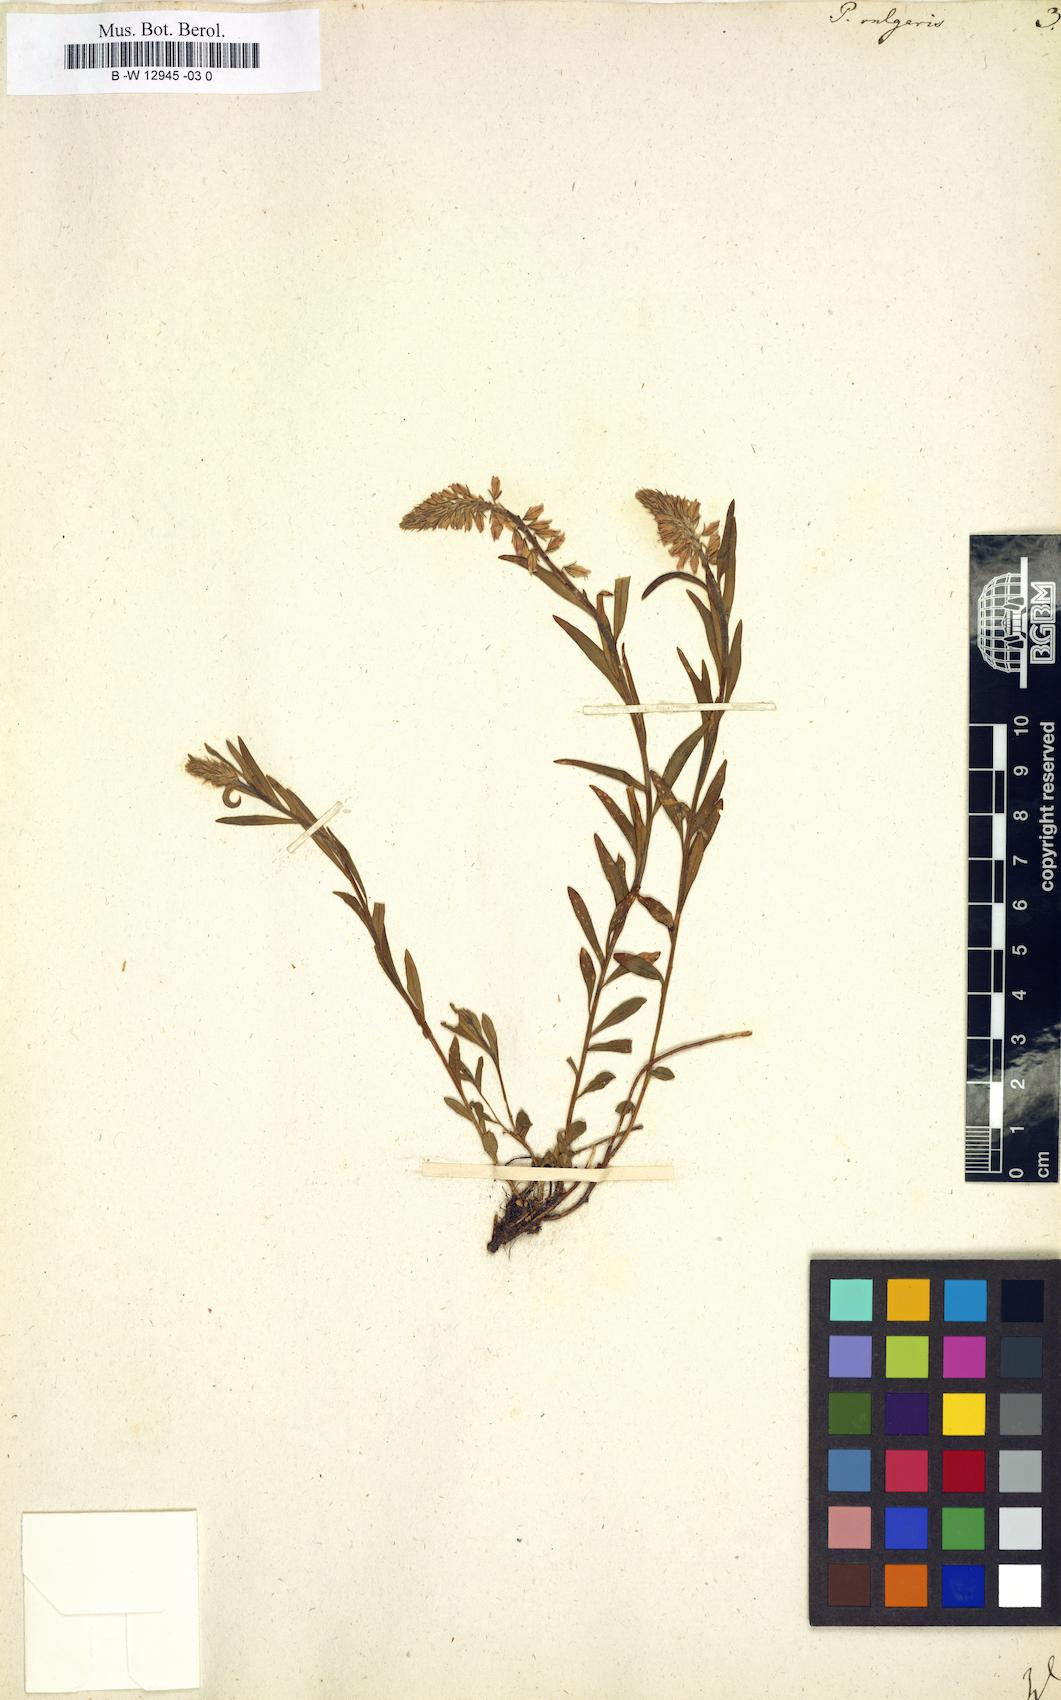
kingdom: Plantae
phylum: Tracheophyta
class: Magnoliopsida
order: Fabales
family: Polygalaceae
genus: Polygala
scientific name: Polygala vulgaris
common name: Common milkwort
